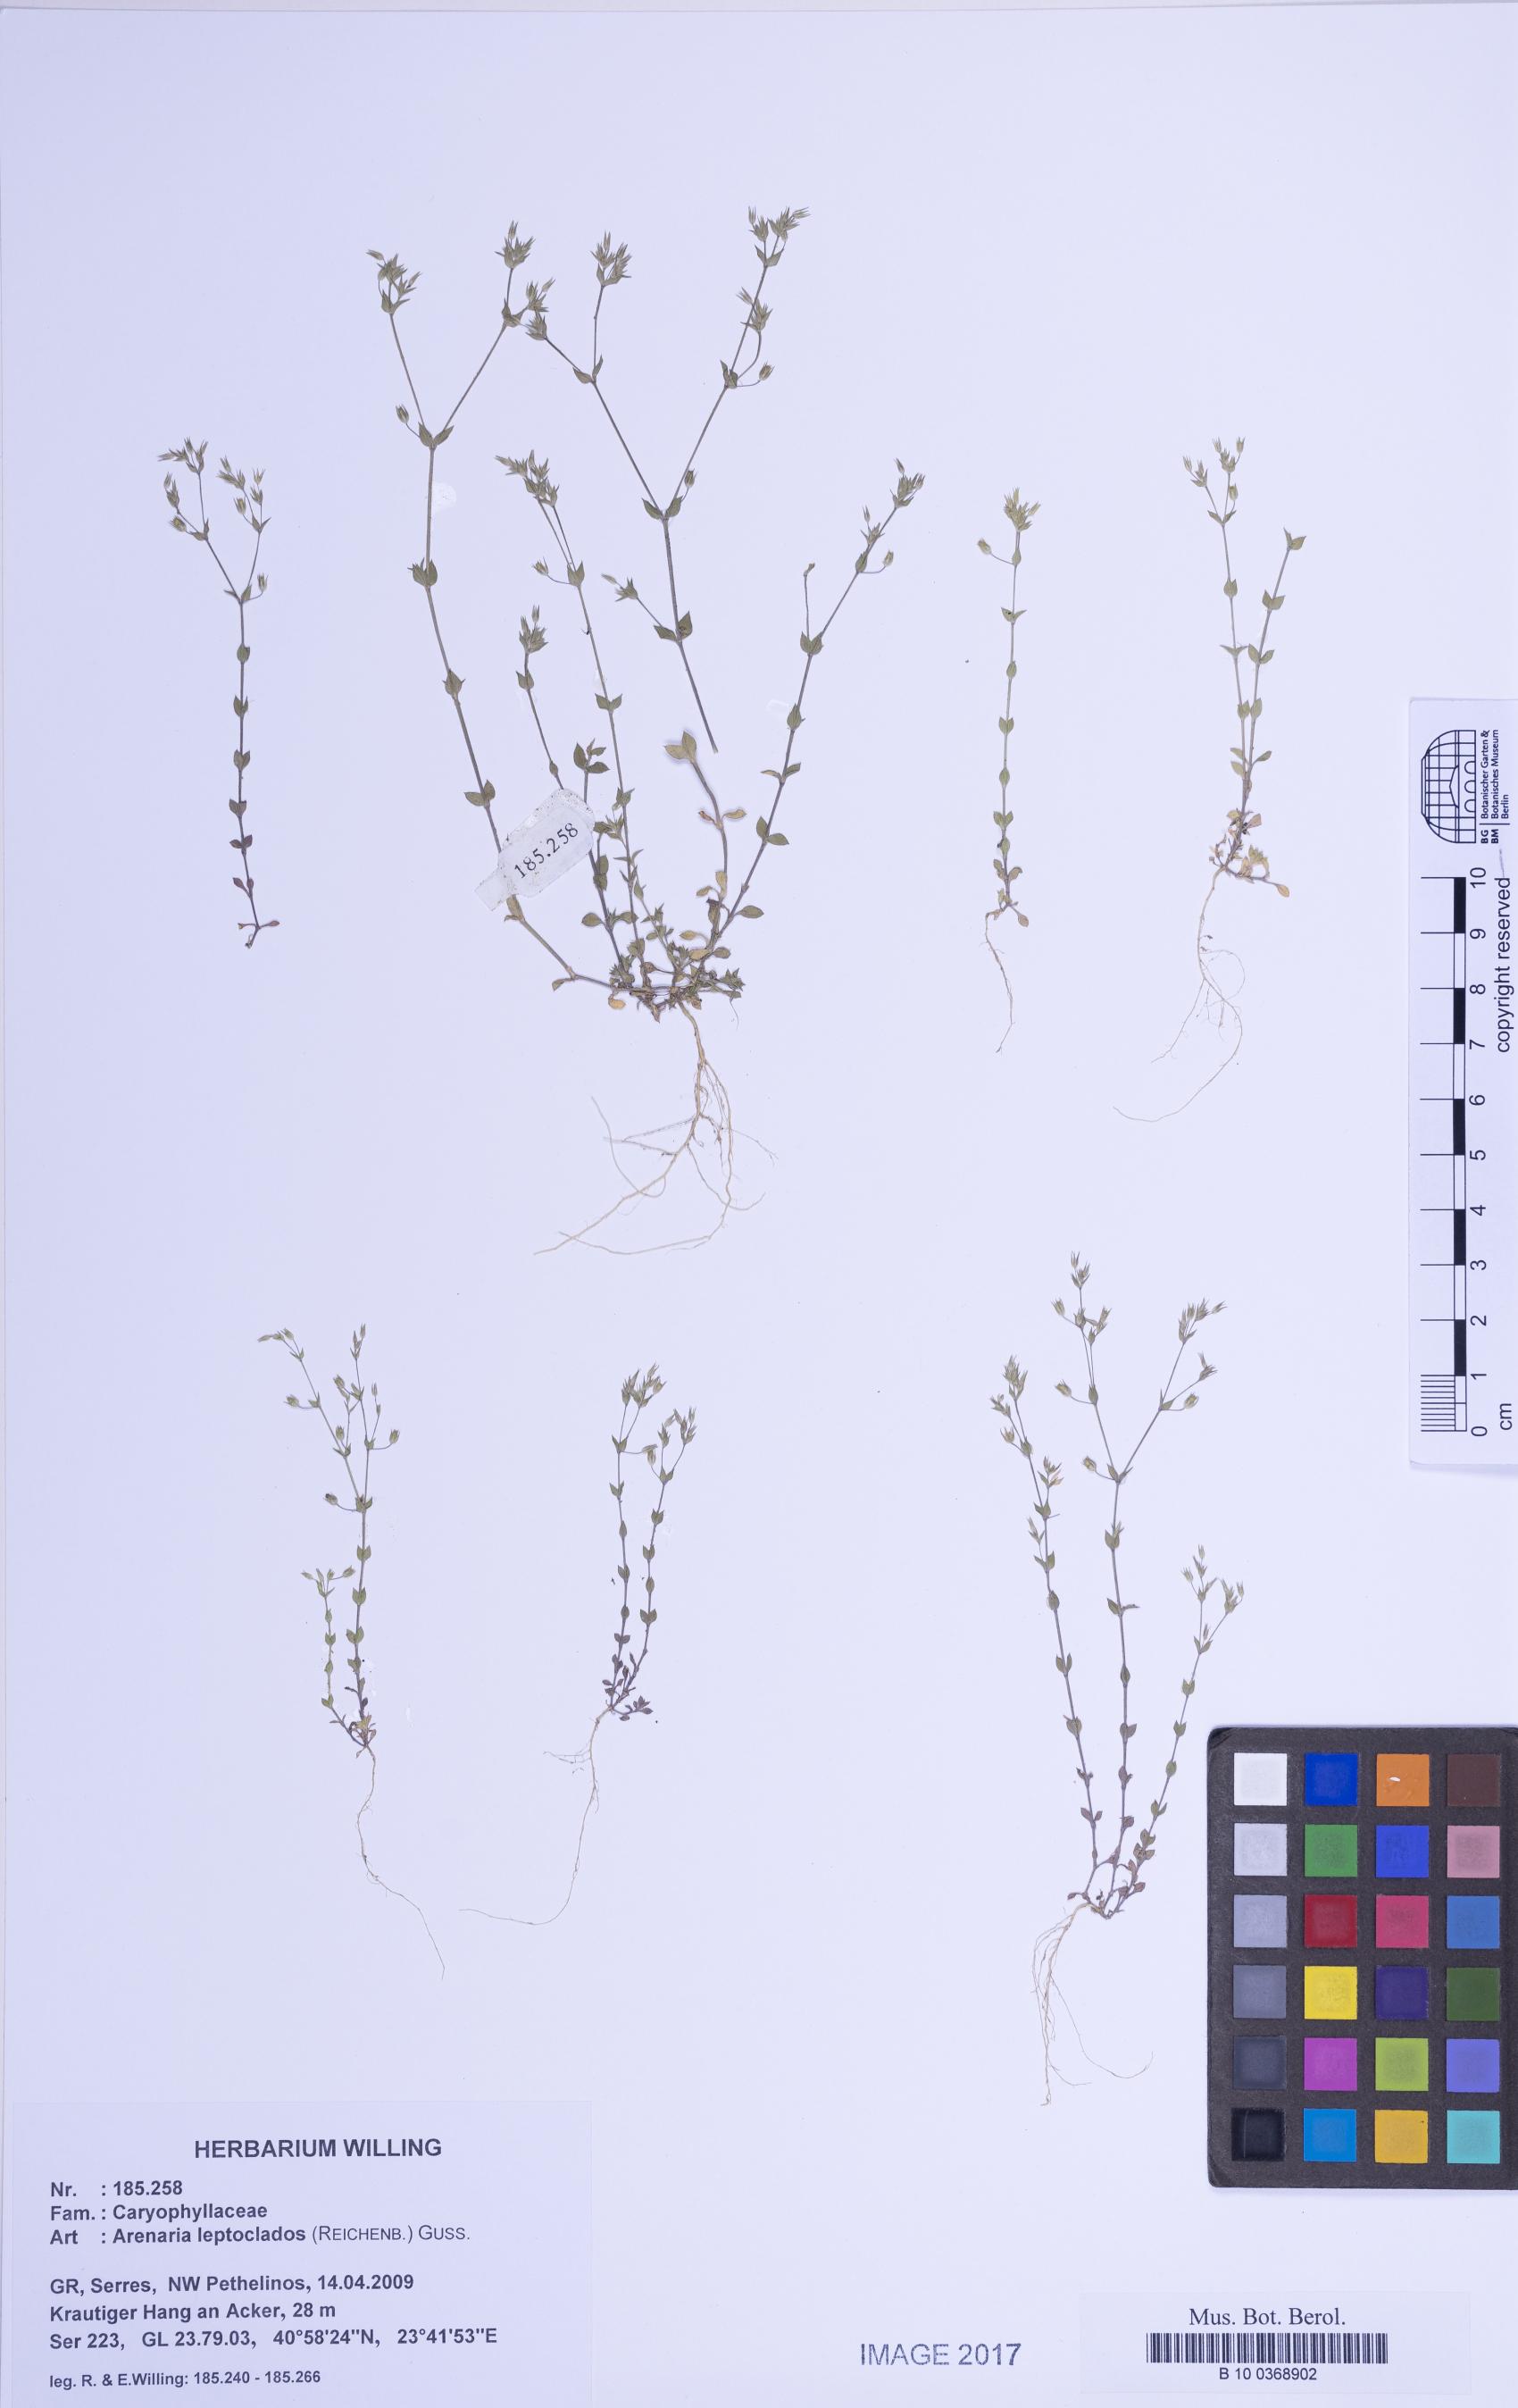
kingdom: Plantae
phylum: Tracheophyta
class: Magnoliopsida
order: Caryophyllales
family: Caryophyllaceae
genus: Arenaria
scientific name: Arenaria leptoclados
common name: Thyme-leaved sandwort
